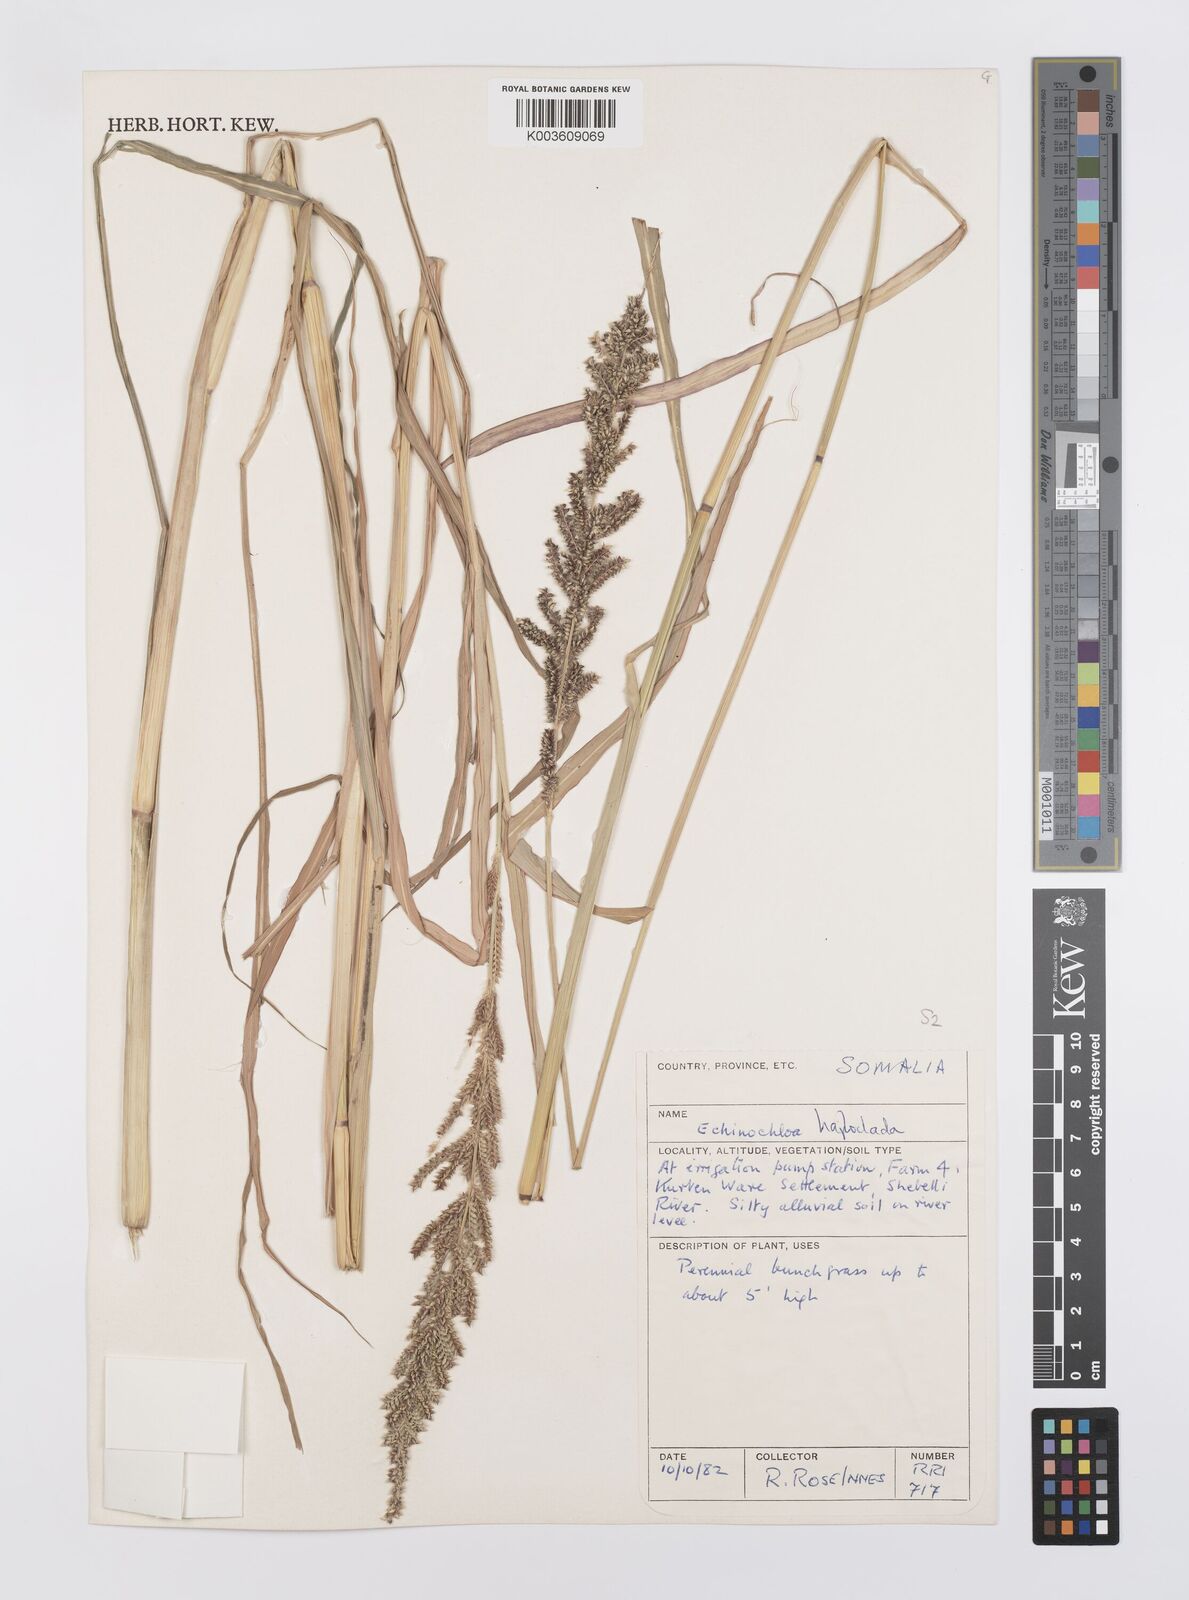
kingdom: Plantae
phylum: Tracheophyta
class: Liliopsida
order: Poales
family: Poaceae
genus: Echinochloa
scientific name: Echinochloa haploclada
